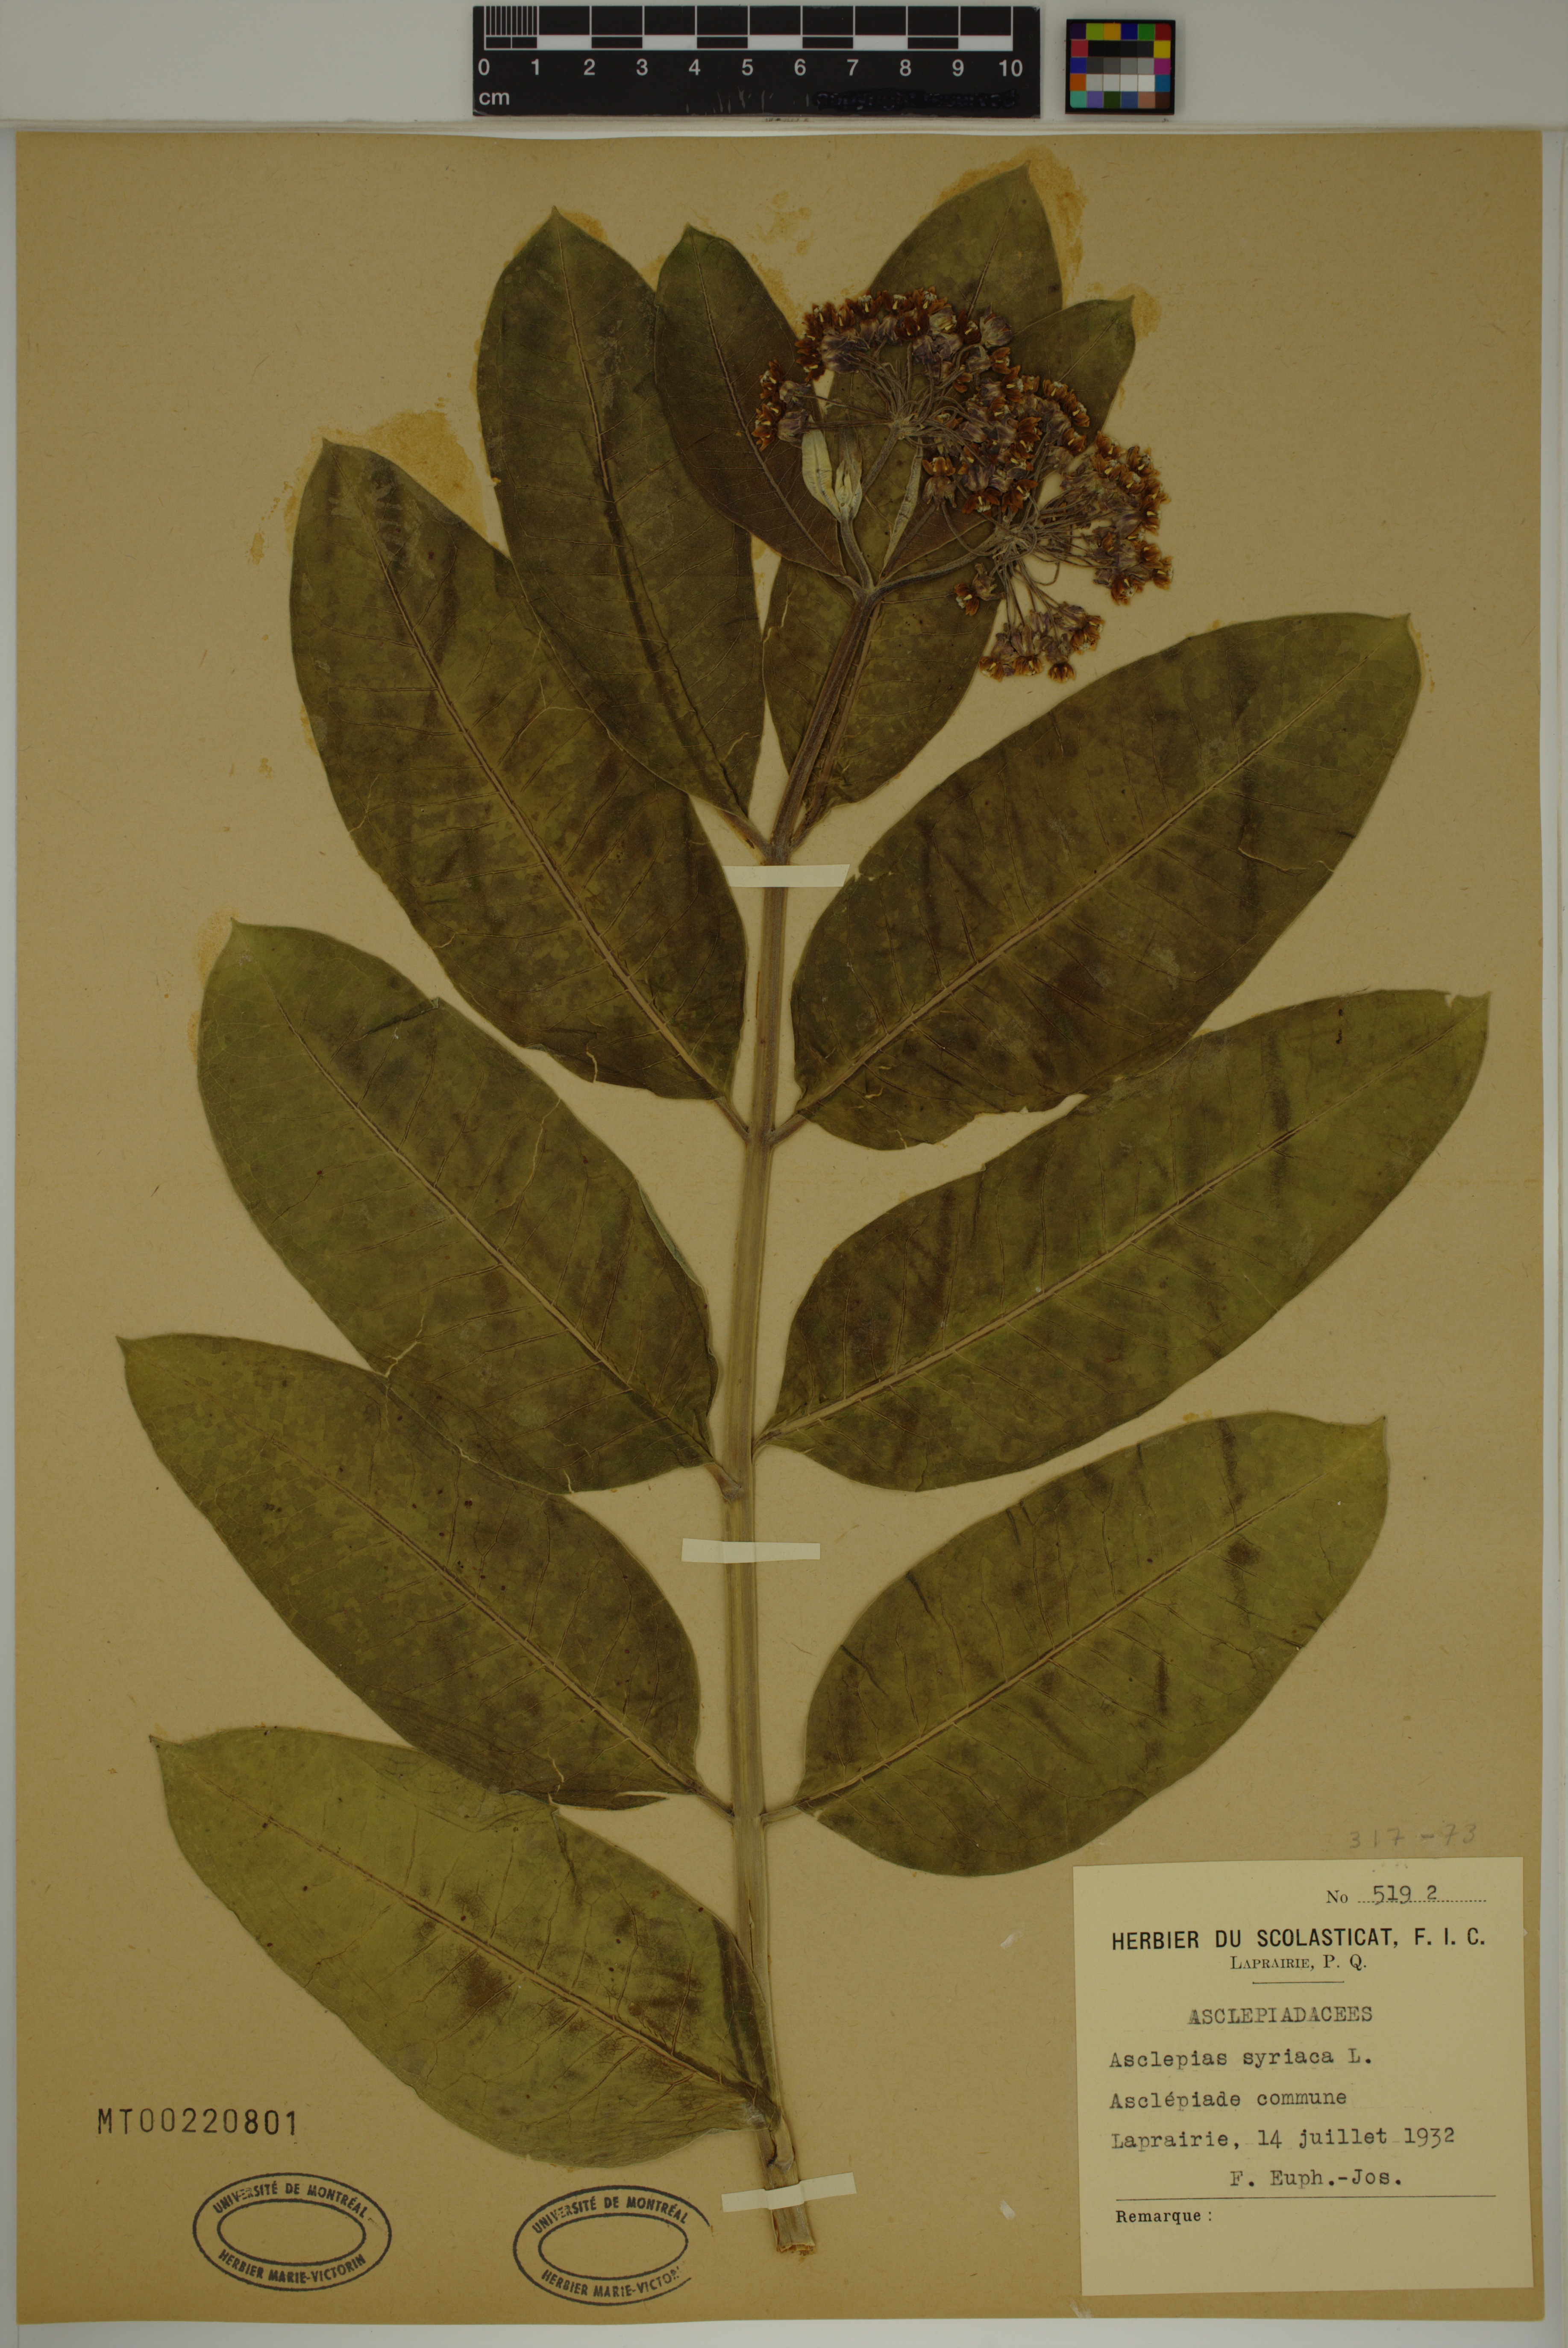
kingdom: Plantae
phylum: Tracheophyta
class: Magnoliopsida
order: Gentianales
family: Apocynaceae
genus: Asclepias
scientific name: Asclepias syriaca
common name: Common milkweed
